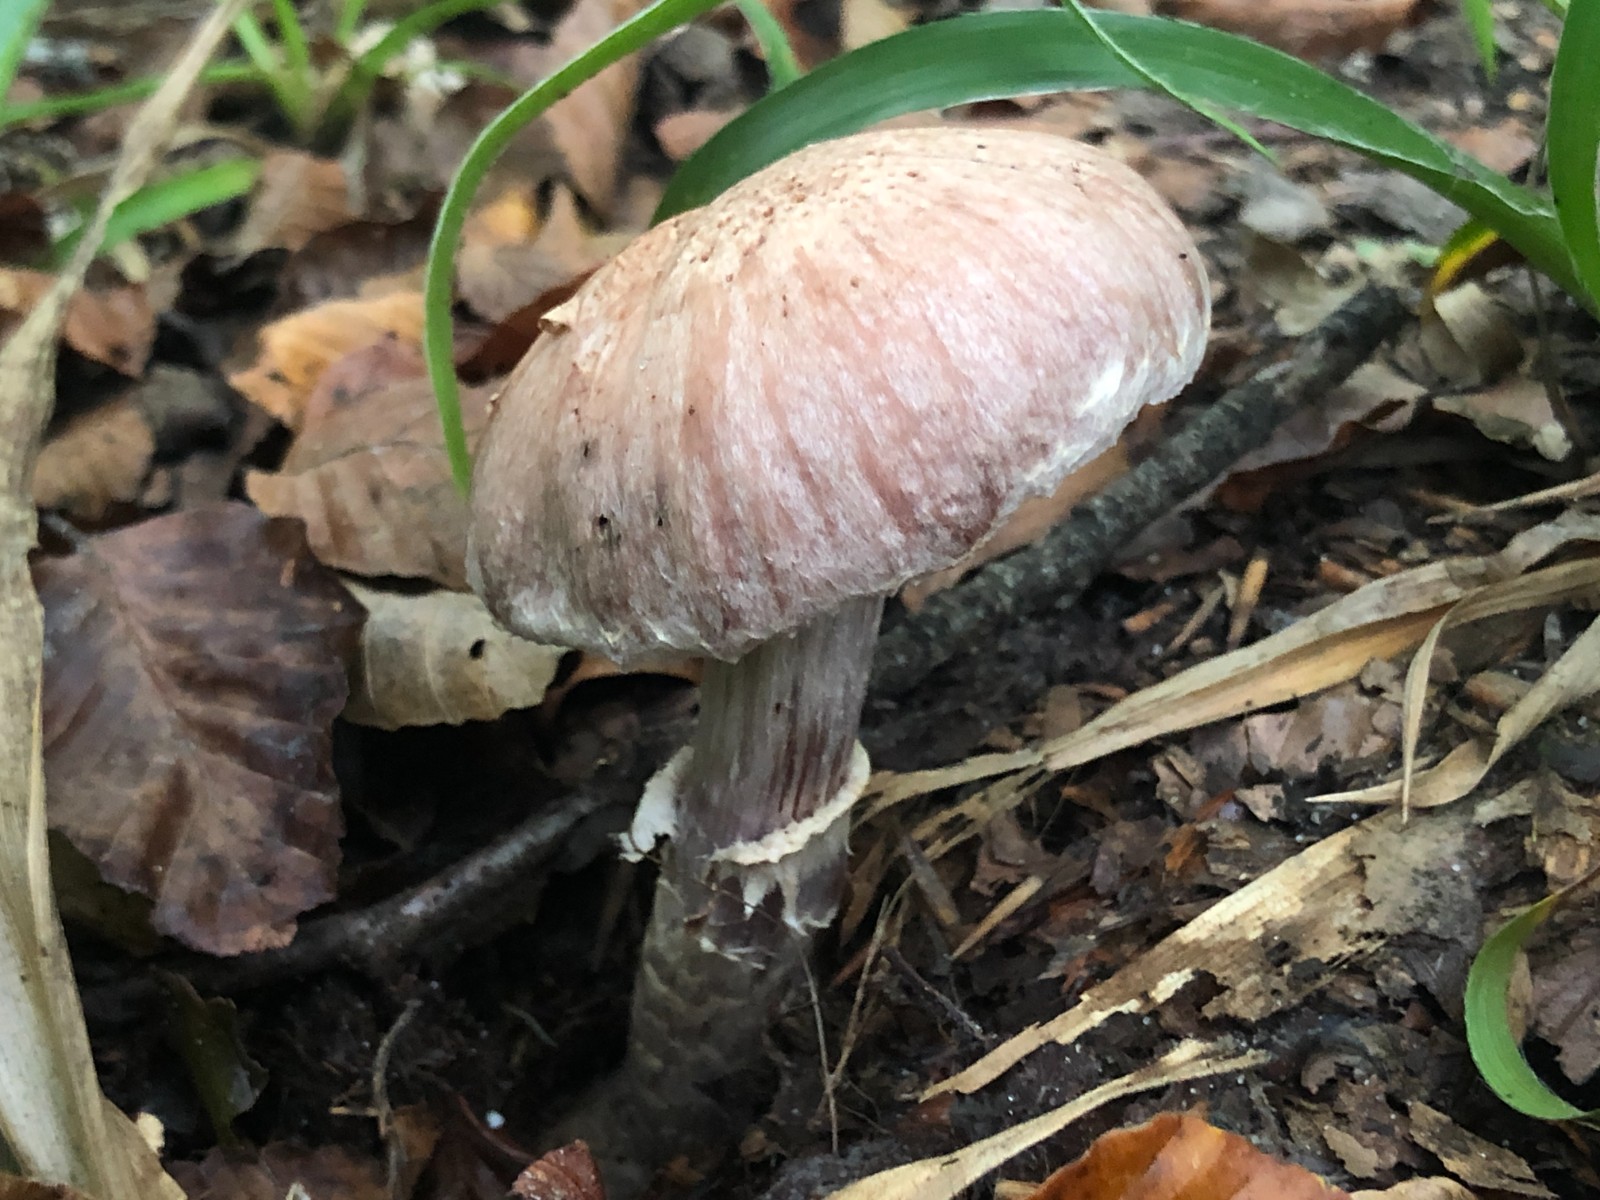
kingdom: Fungi
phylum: Basidiomycota
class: Agaricomycetes
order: Agaricales
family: Cortinariaceae
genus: Cortinarius
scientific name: Cortinarius torvus
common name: champignonagtig slørhat
